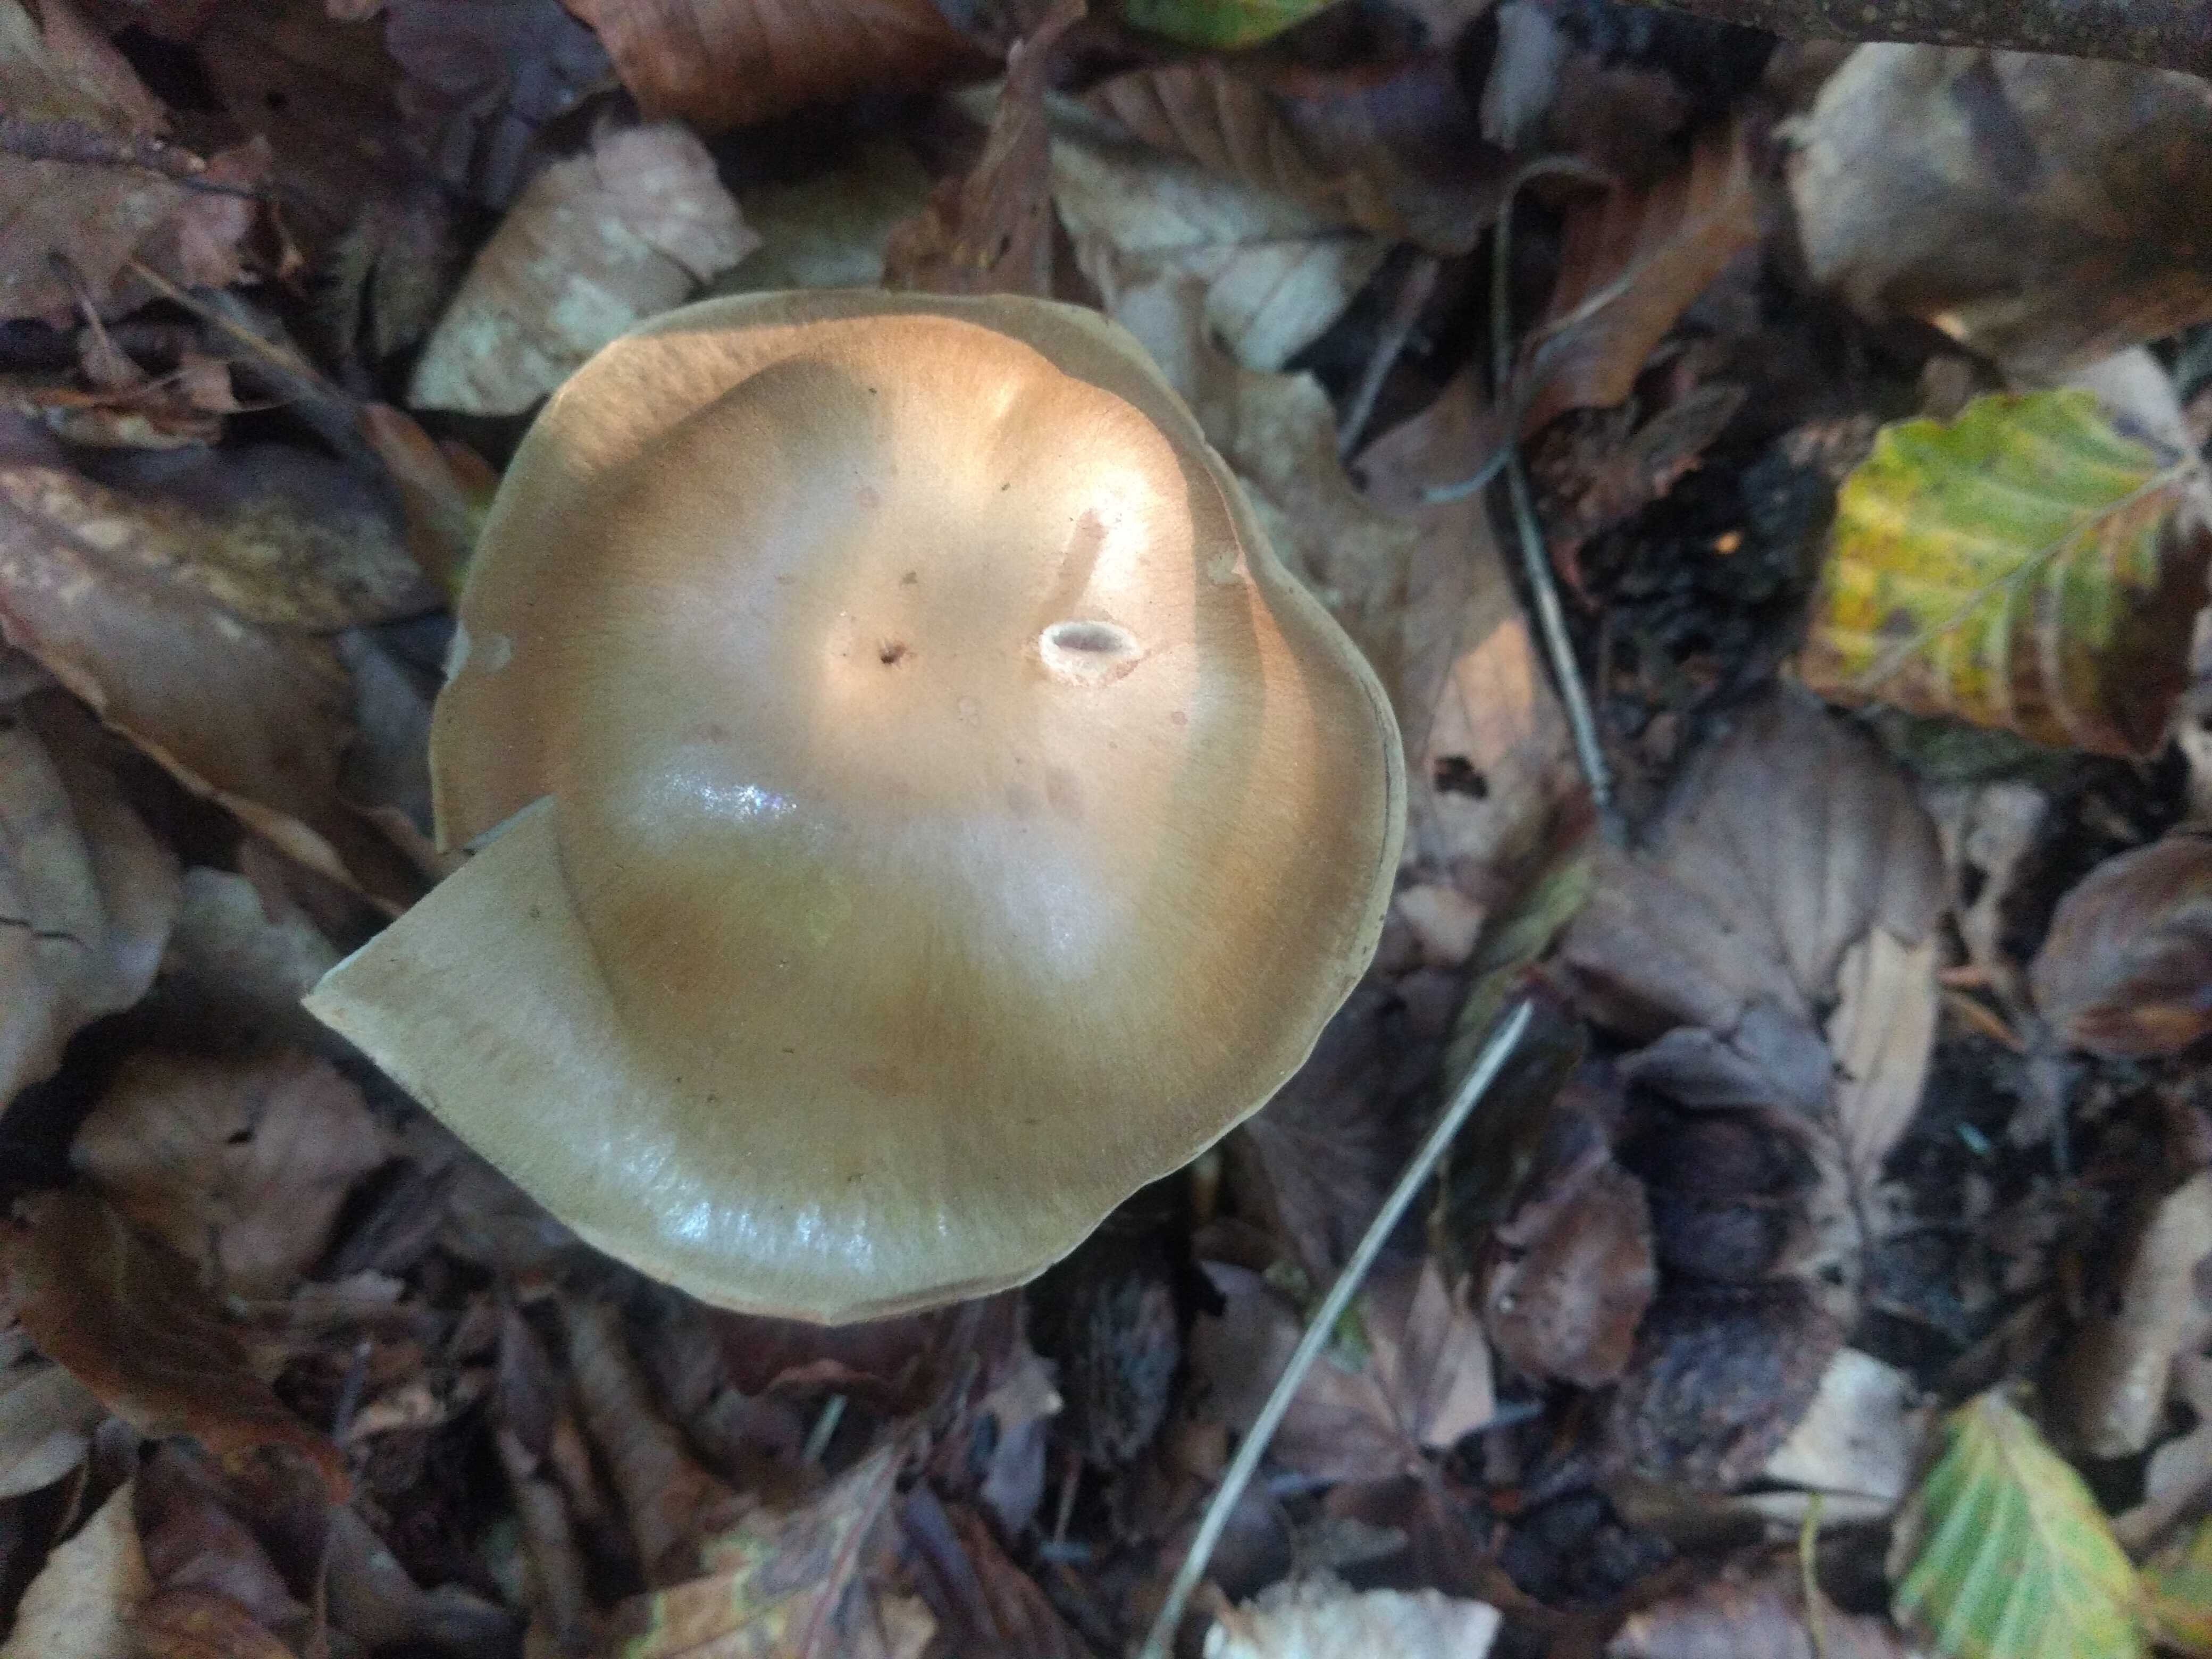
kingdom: Fungi
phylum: Basidiomycota
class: Agaricomycetes
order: Agaricales
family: Cortinariaceae
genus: Cortinarius
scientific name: Cortinarius
